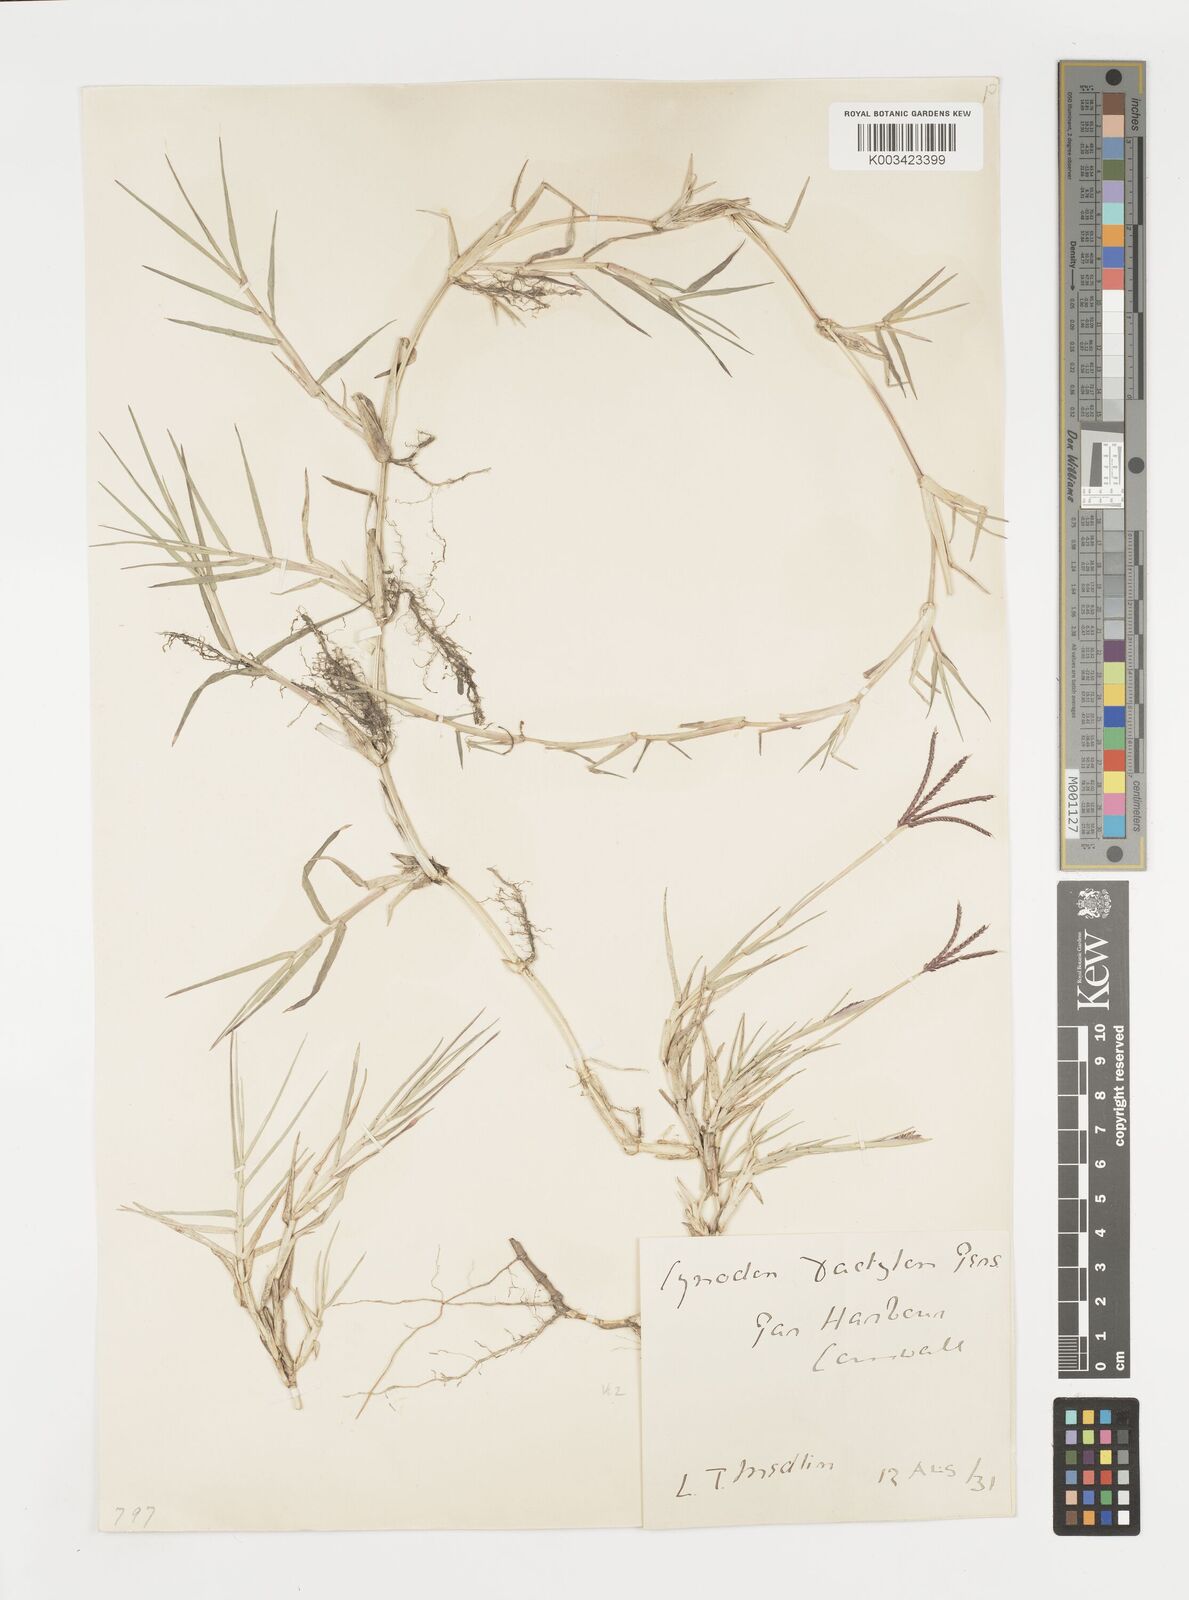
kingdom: Plantae
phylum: Tracheophyta
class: Liliopsida
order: Poales
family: Poaceae
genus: Cynodon
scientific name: Cynodon dactylon
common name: Bermuda grass
